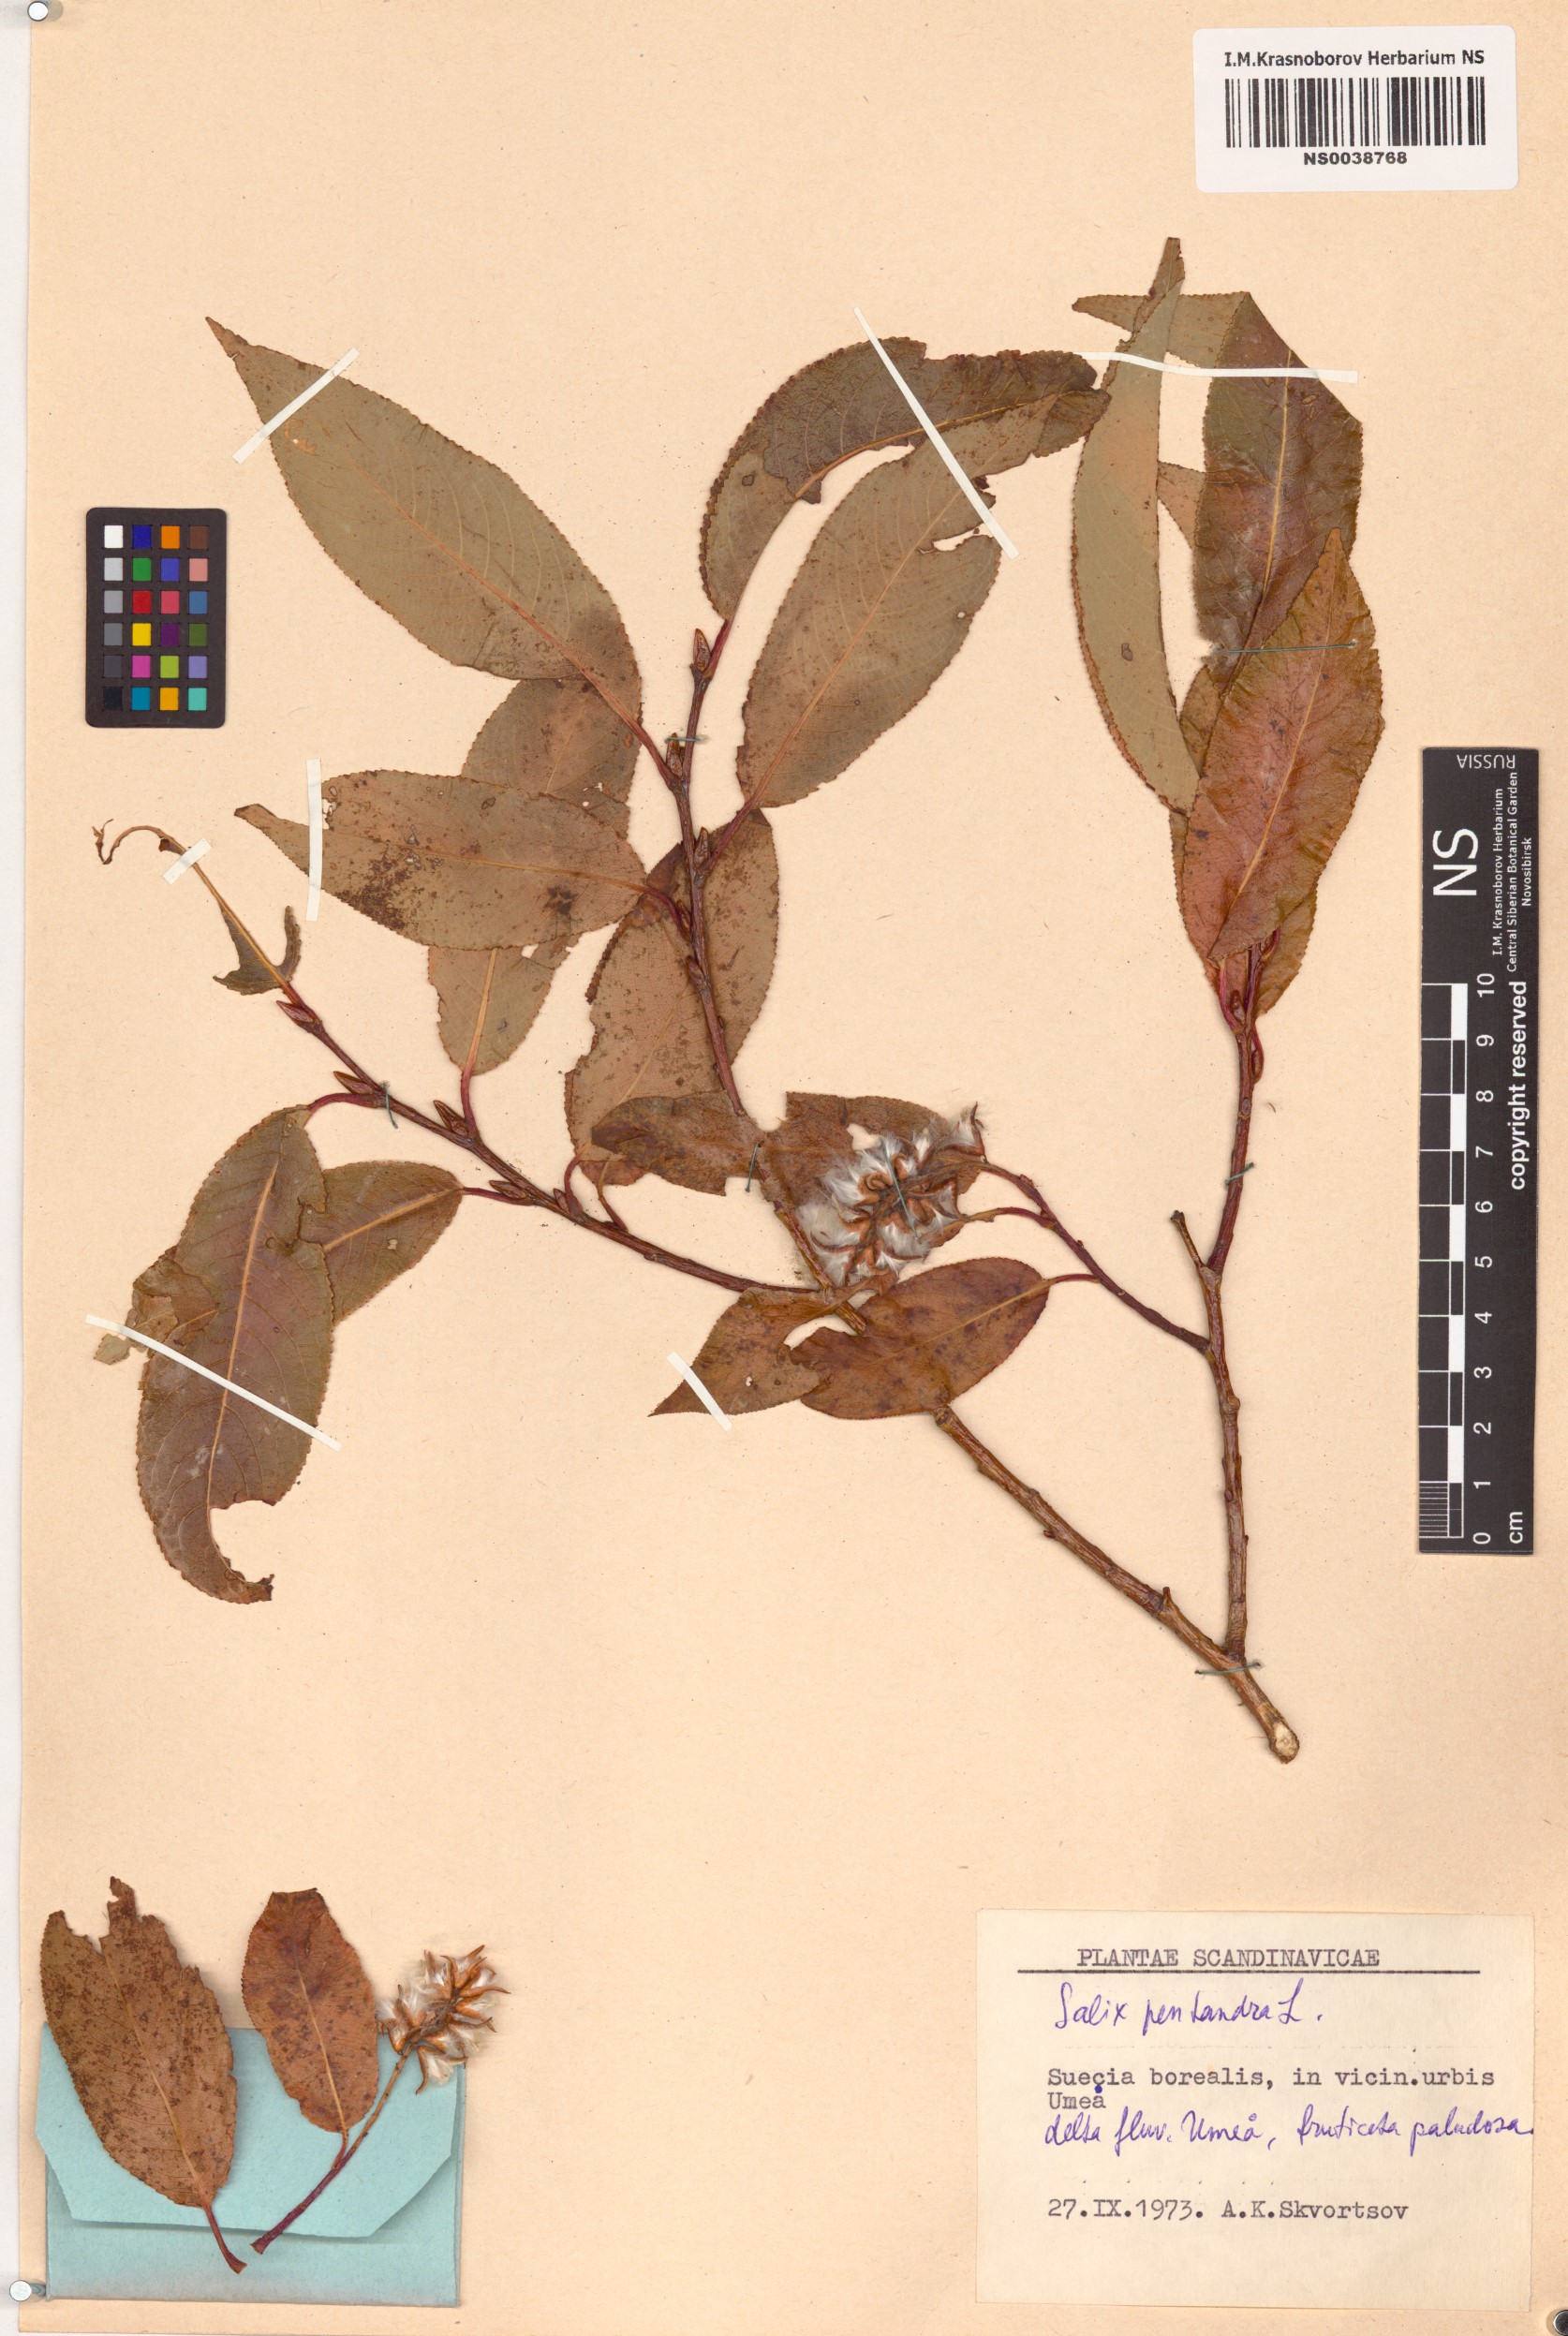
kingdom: Plantae
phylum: Tracheophyta
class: Magnoliopsida
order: Malpighiales
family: Salicaceae
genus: Salix
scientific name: Salix pentandra
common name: Bay willow
